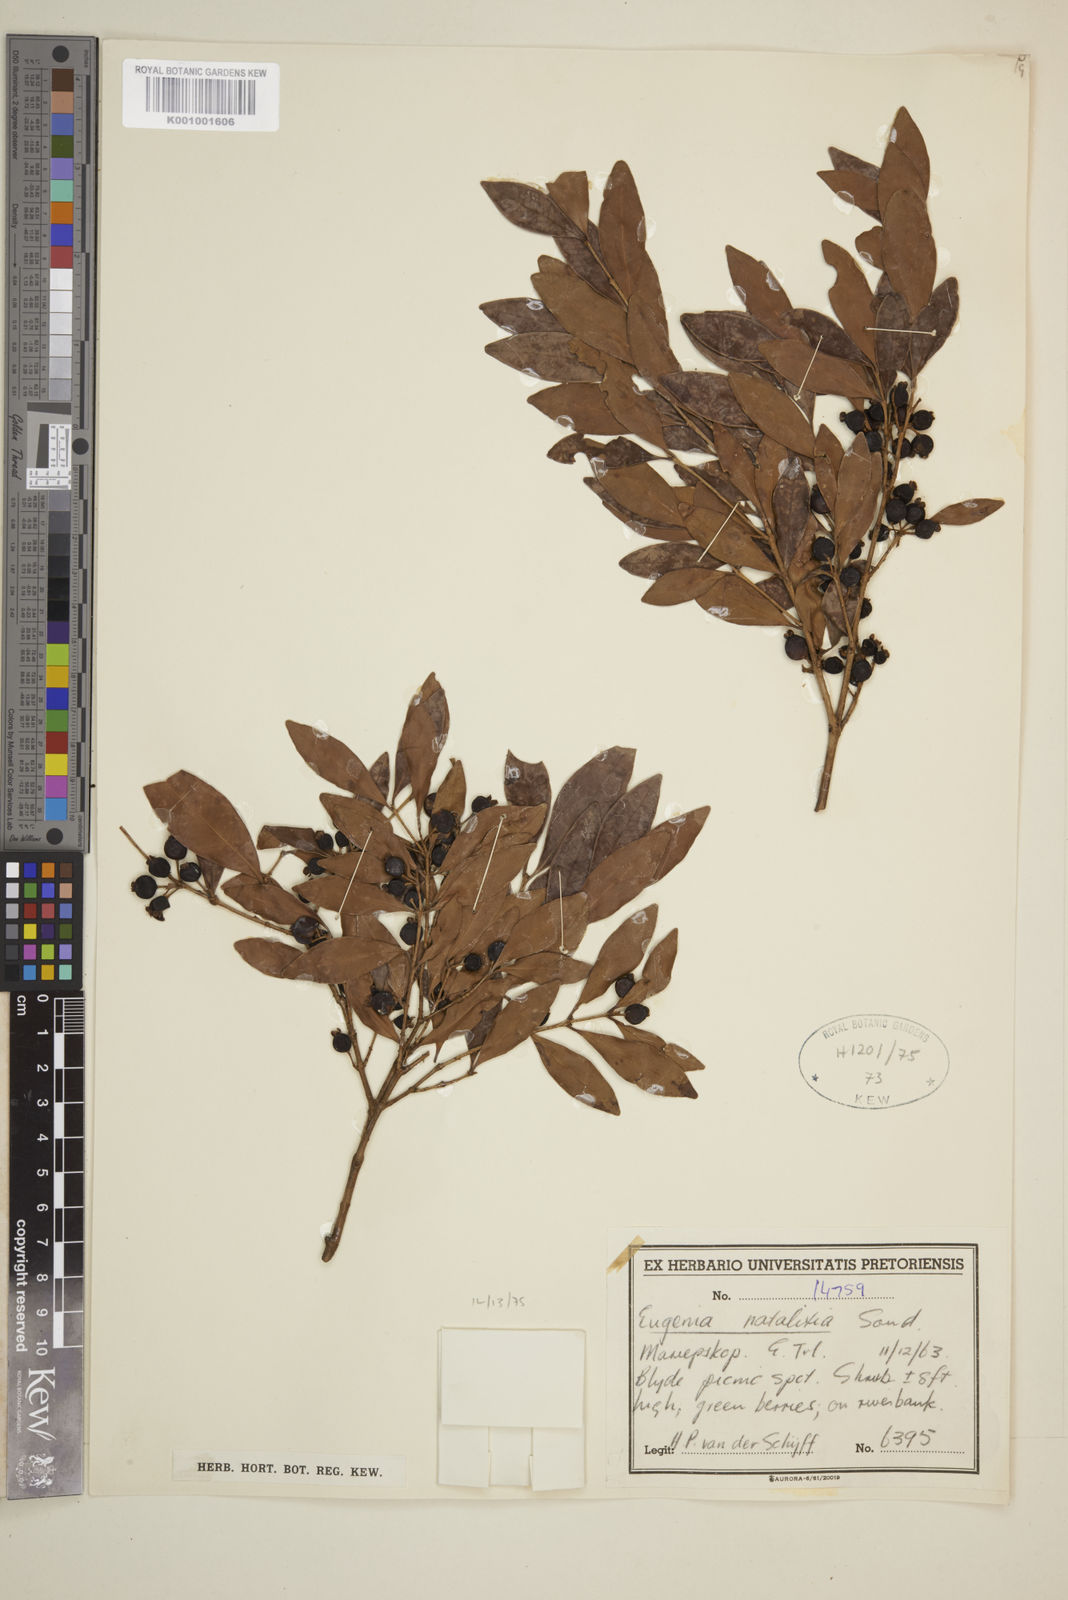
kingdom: Plantae
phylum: Tracheophyta
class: Magnoliopsida
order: Myrtales
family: Myrtaceae
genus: Eugenia
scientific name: Eugenia natalitia
